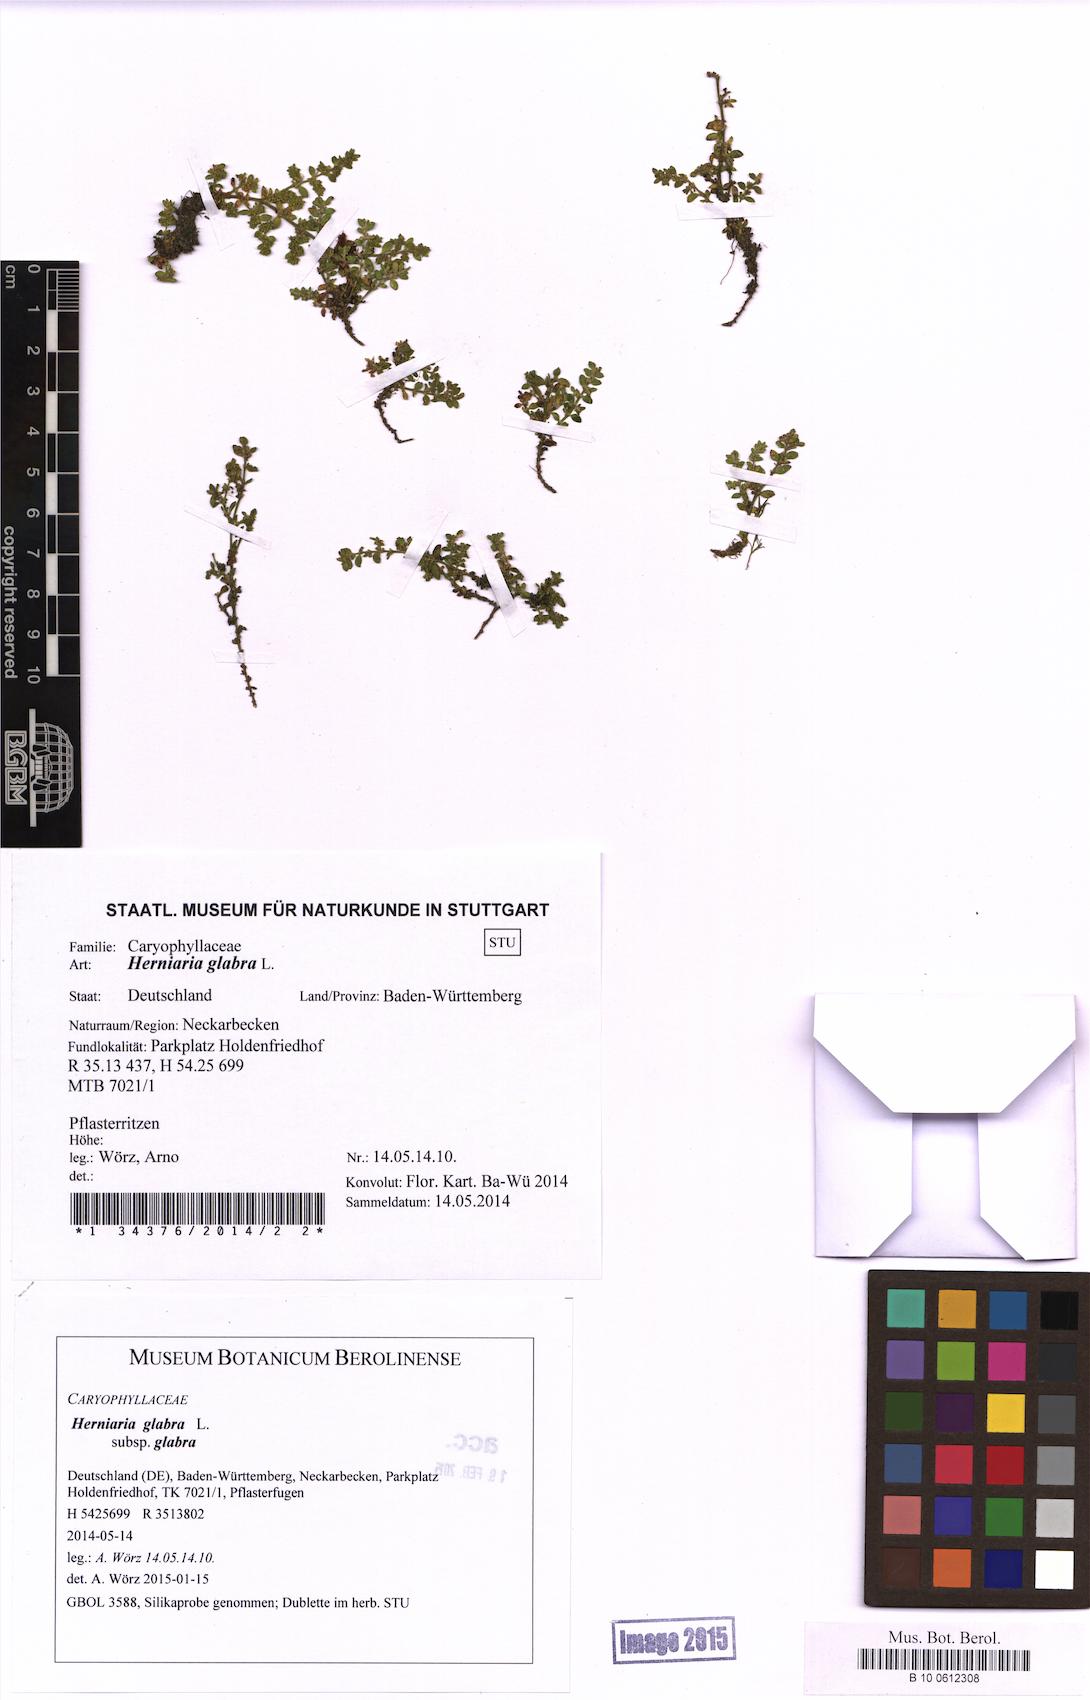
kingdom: Plantae
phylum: Tracheophyta
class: Magnoliopsida
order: Caryophyllales
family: Caryophyllaceae
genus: Herniaria
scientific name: Herniaria glabra
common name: Smooth rupturewort
